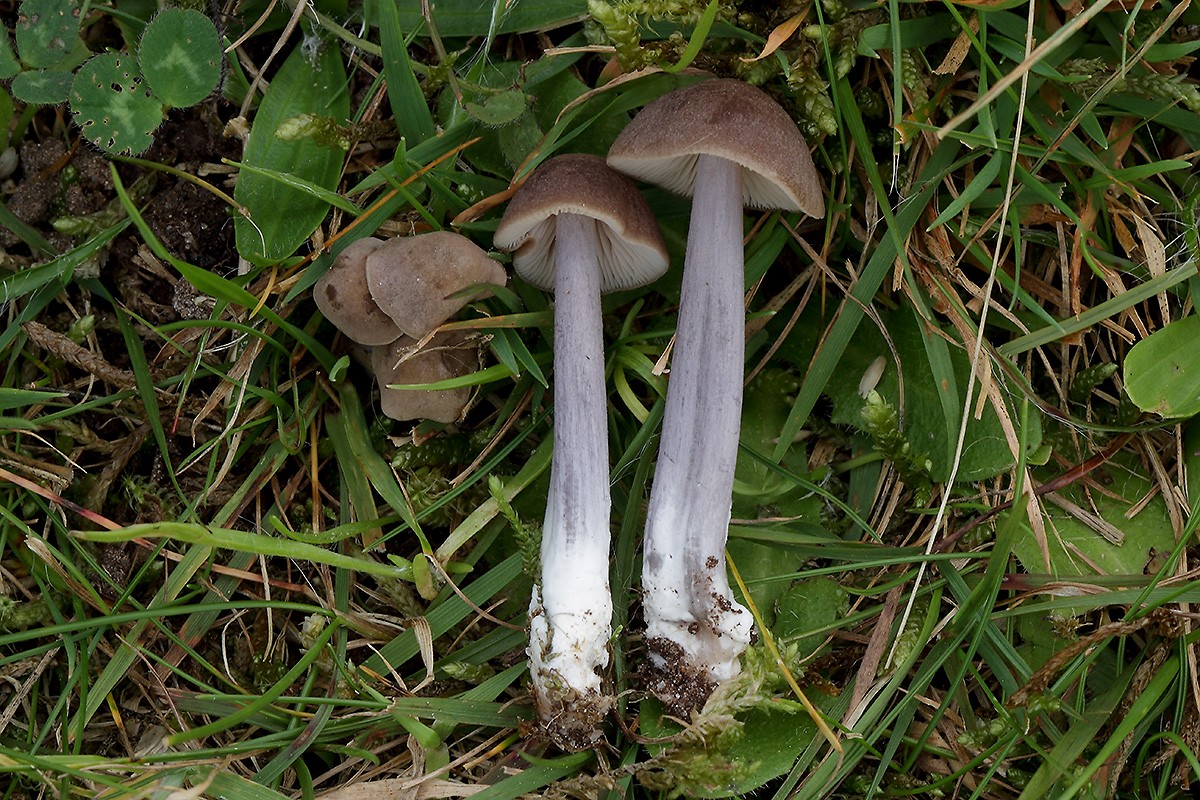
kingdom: Fungi
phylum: Basidiomycota
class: Agaricomycetes
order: Agaricales
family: Entolomataceae
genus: Entoloma
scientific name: Entoloma griseocyaneum
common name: gråblå rødblad
